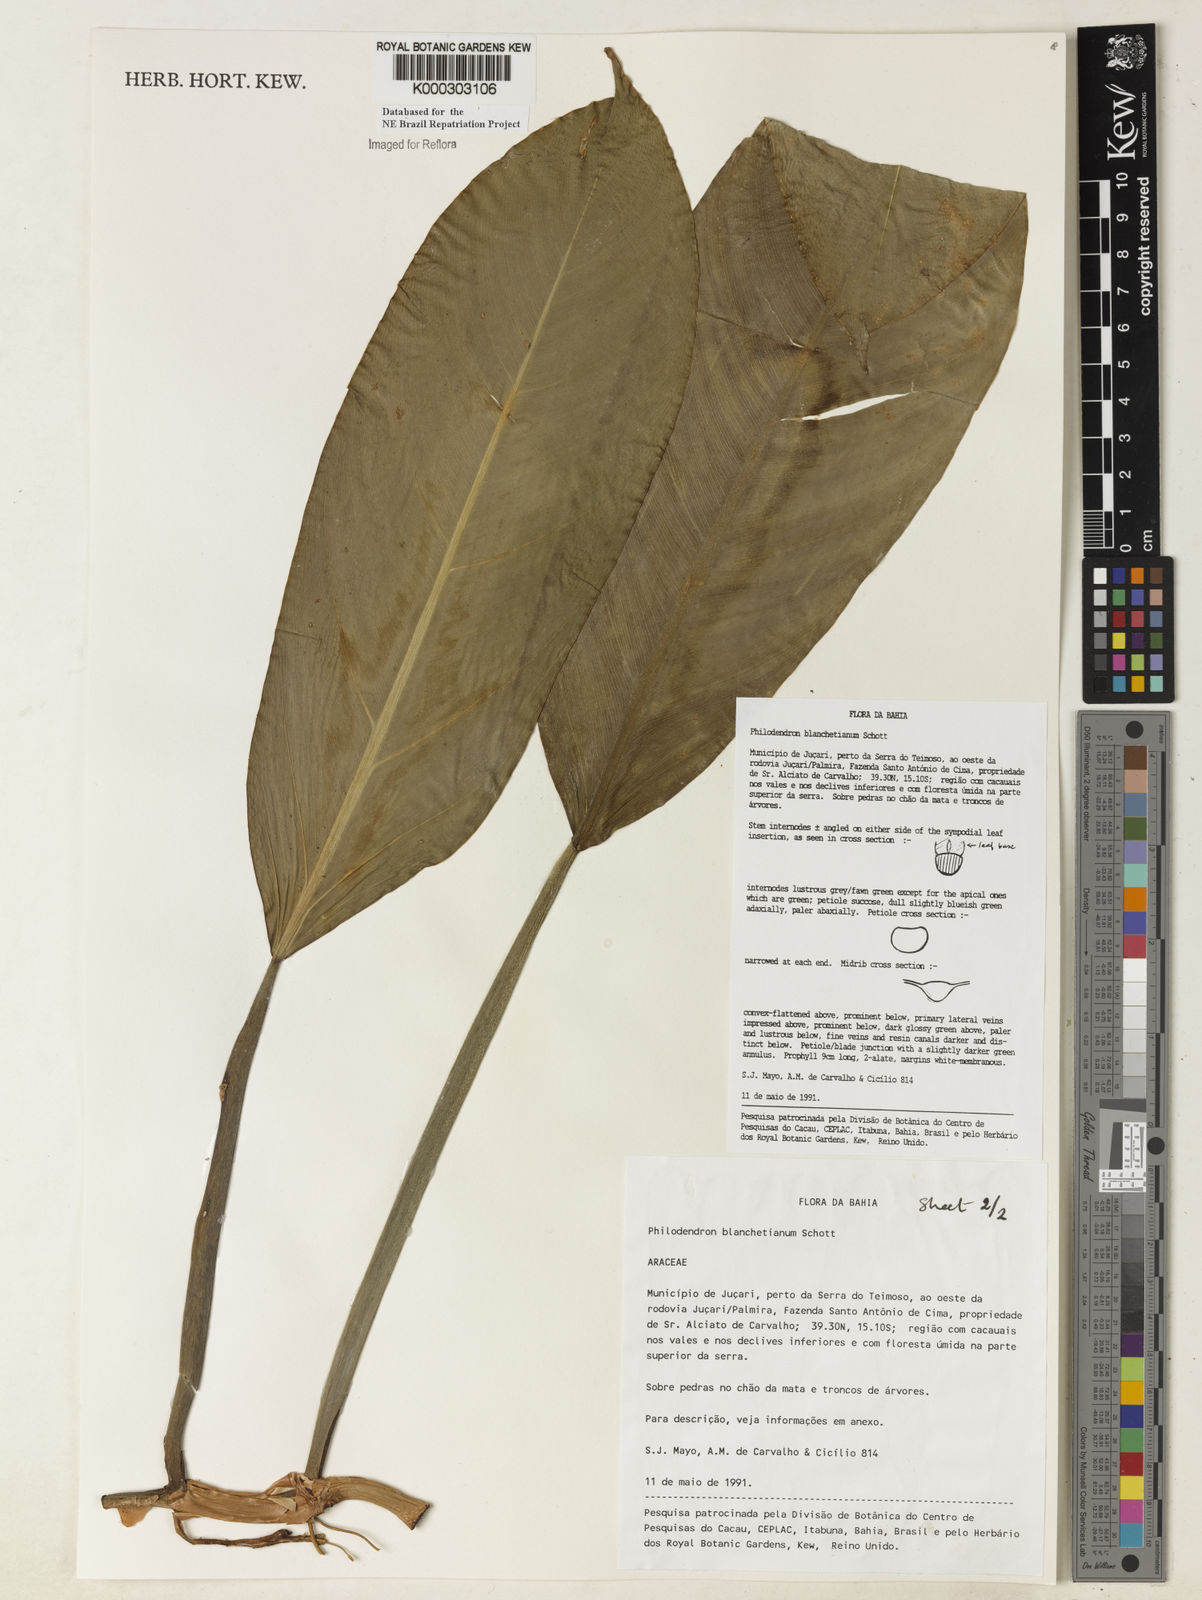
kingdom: Plantae
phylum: Tracheophyta
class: Liliopsida
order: Alismatales
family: Araceae
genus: Philodendron
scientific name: Philodendron blanchetianum
